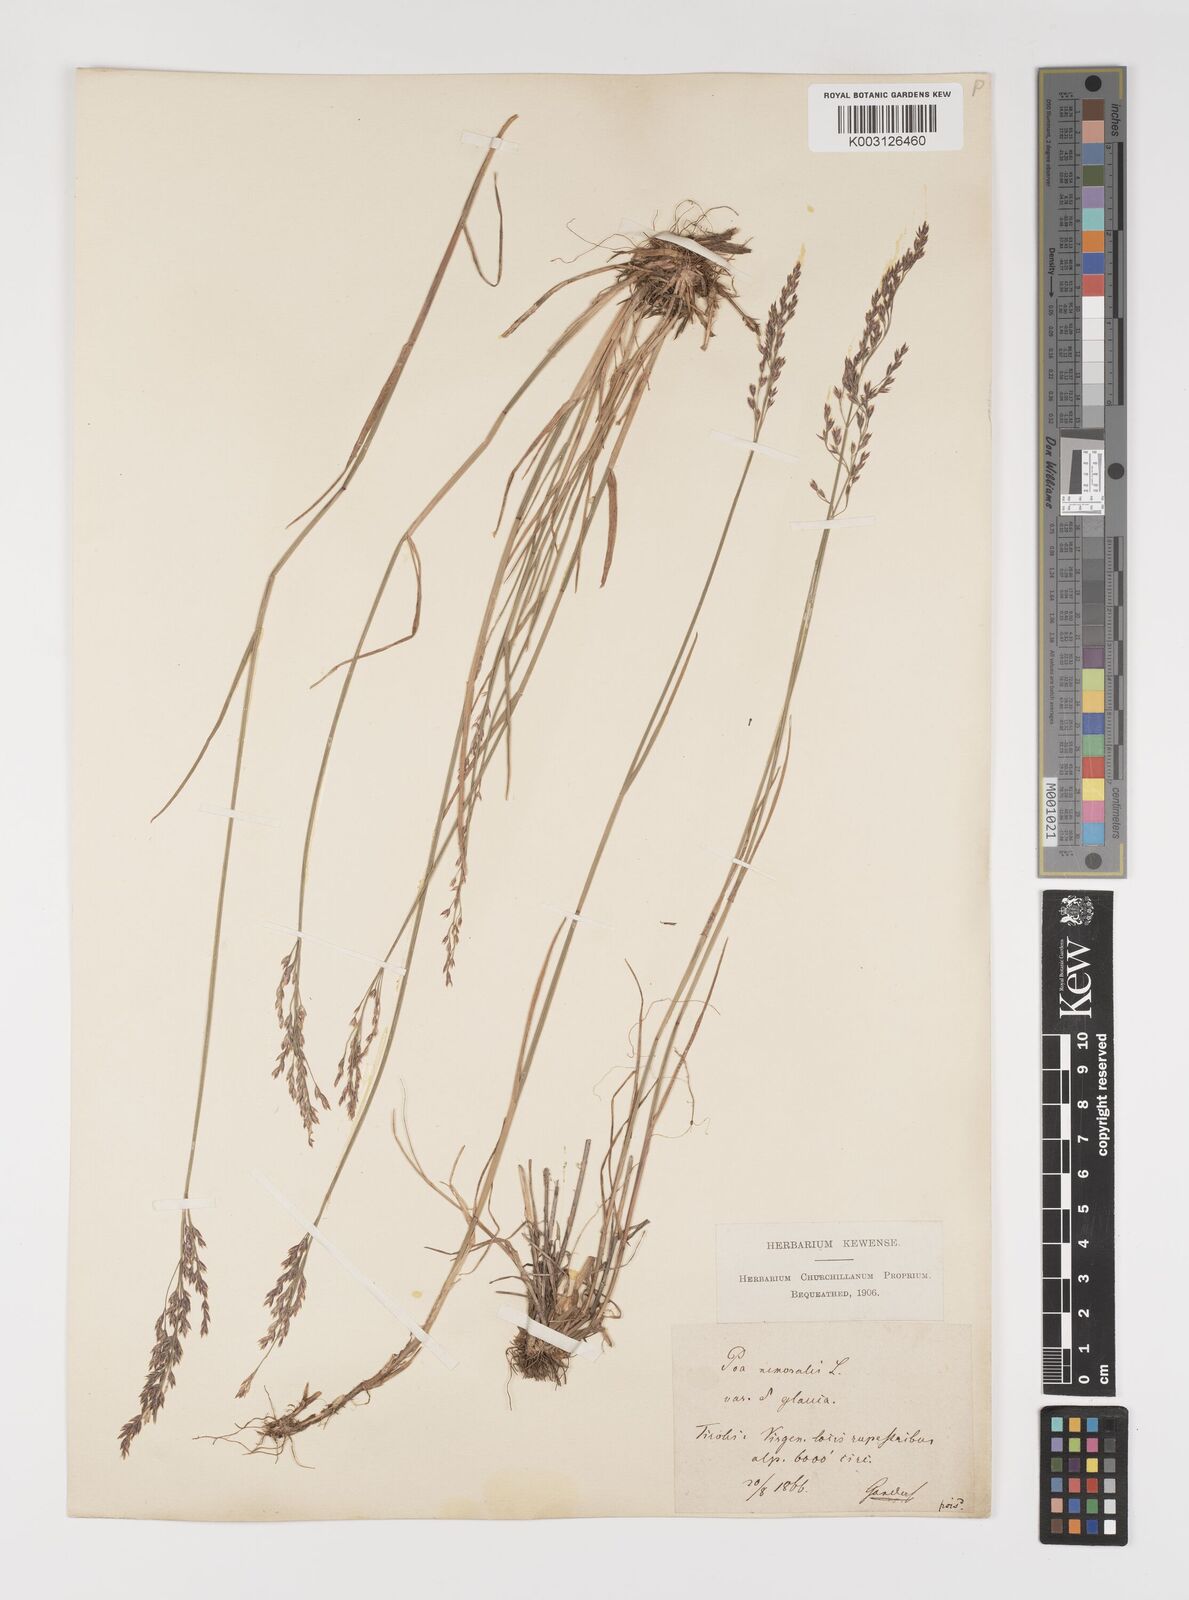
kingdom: Plantae
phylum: Tracheophyta
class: Liliopsida
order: Poales
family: Poaceae
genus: Poa
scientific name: Poa nemoralis
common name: Wood bluegrass
